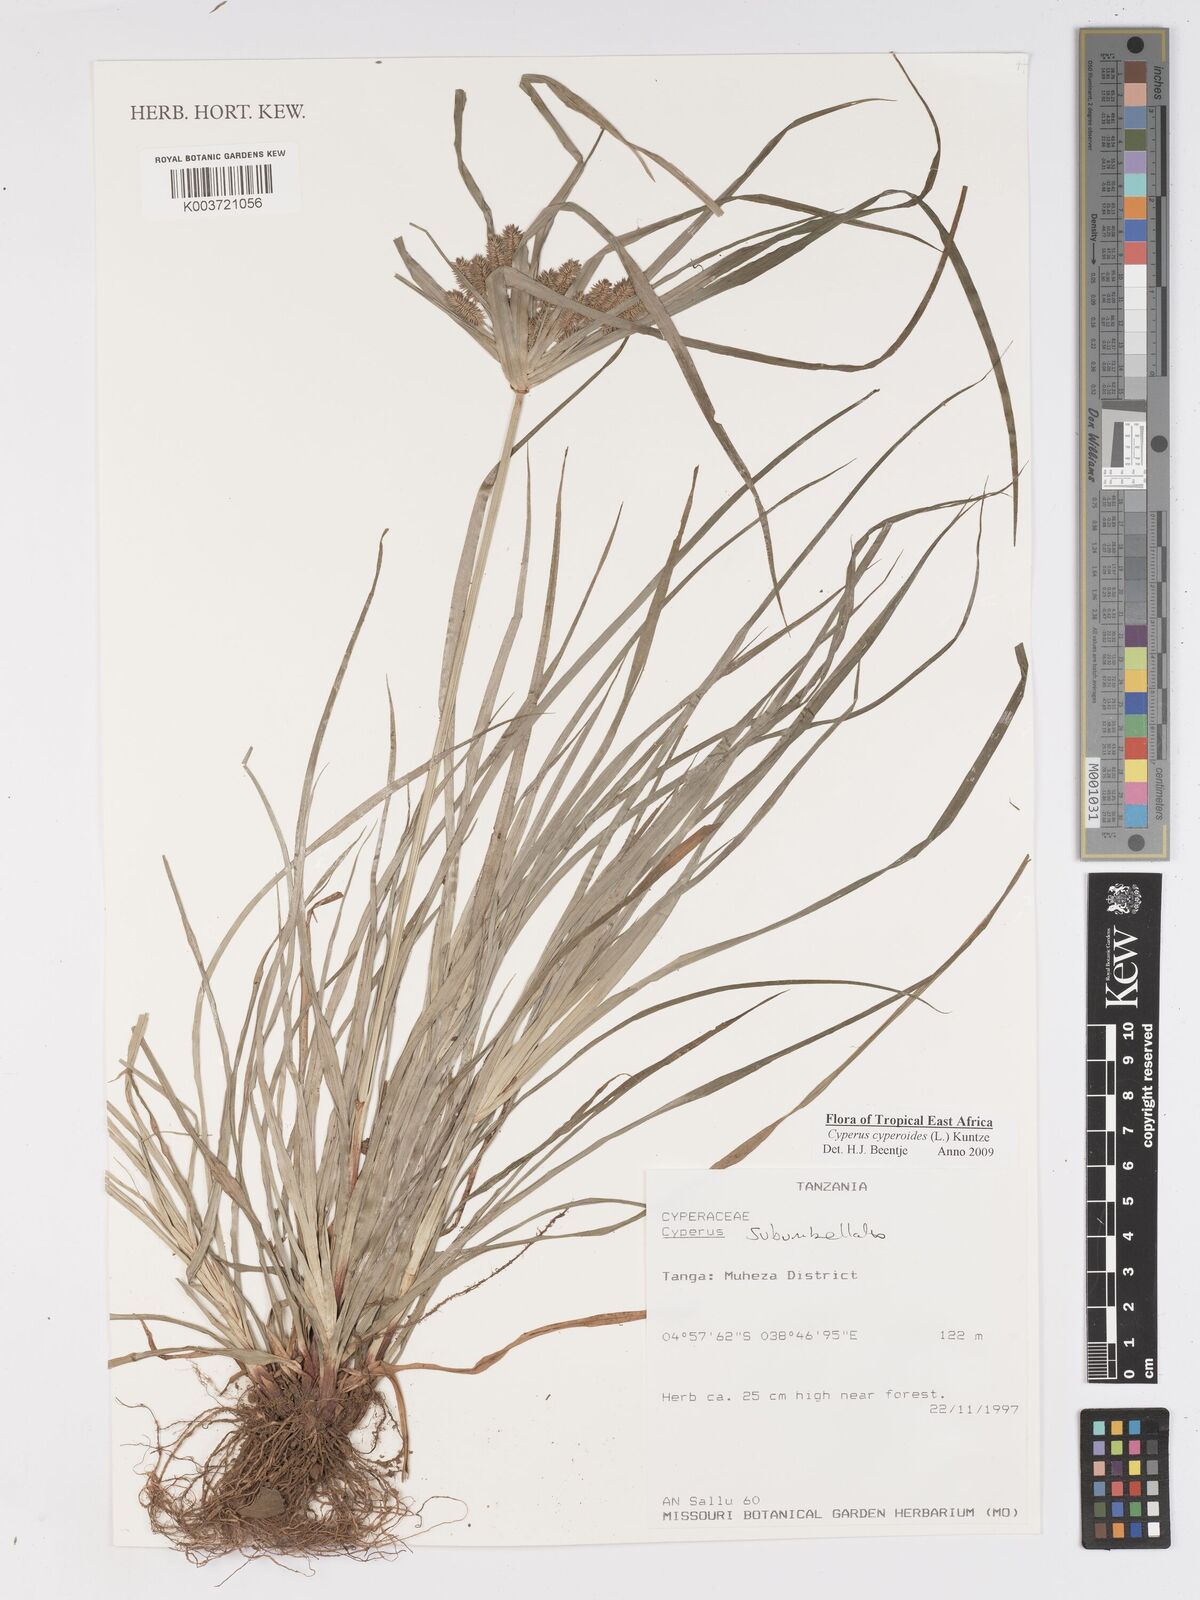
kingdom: Plantae
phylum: Tracheophyta
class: Liliopsida
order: Poales
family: Cyperaceae
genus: Cyperus
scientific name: Cyperus cyperoides
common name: Pacific island flat sedge
